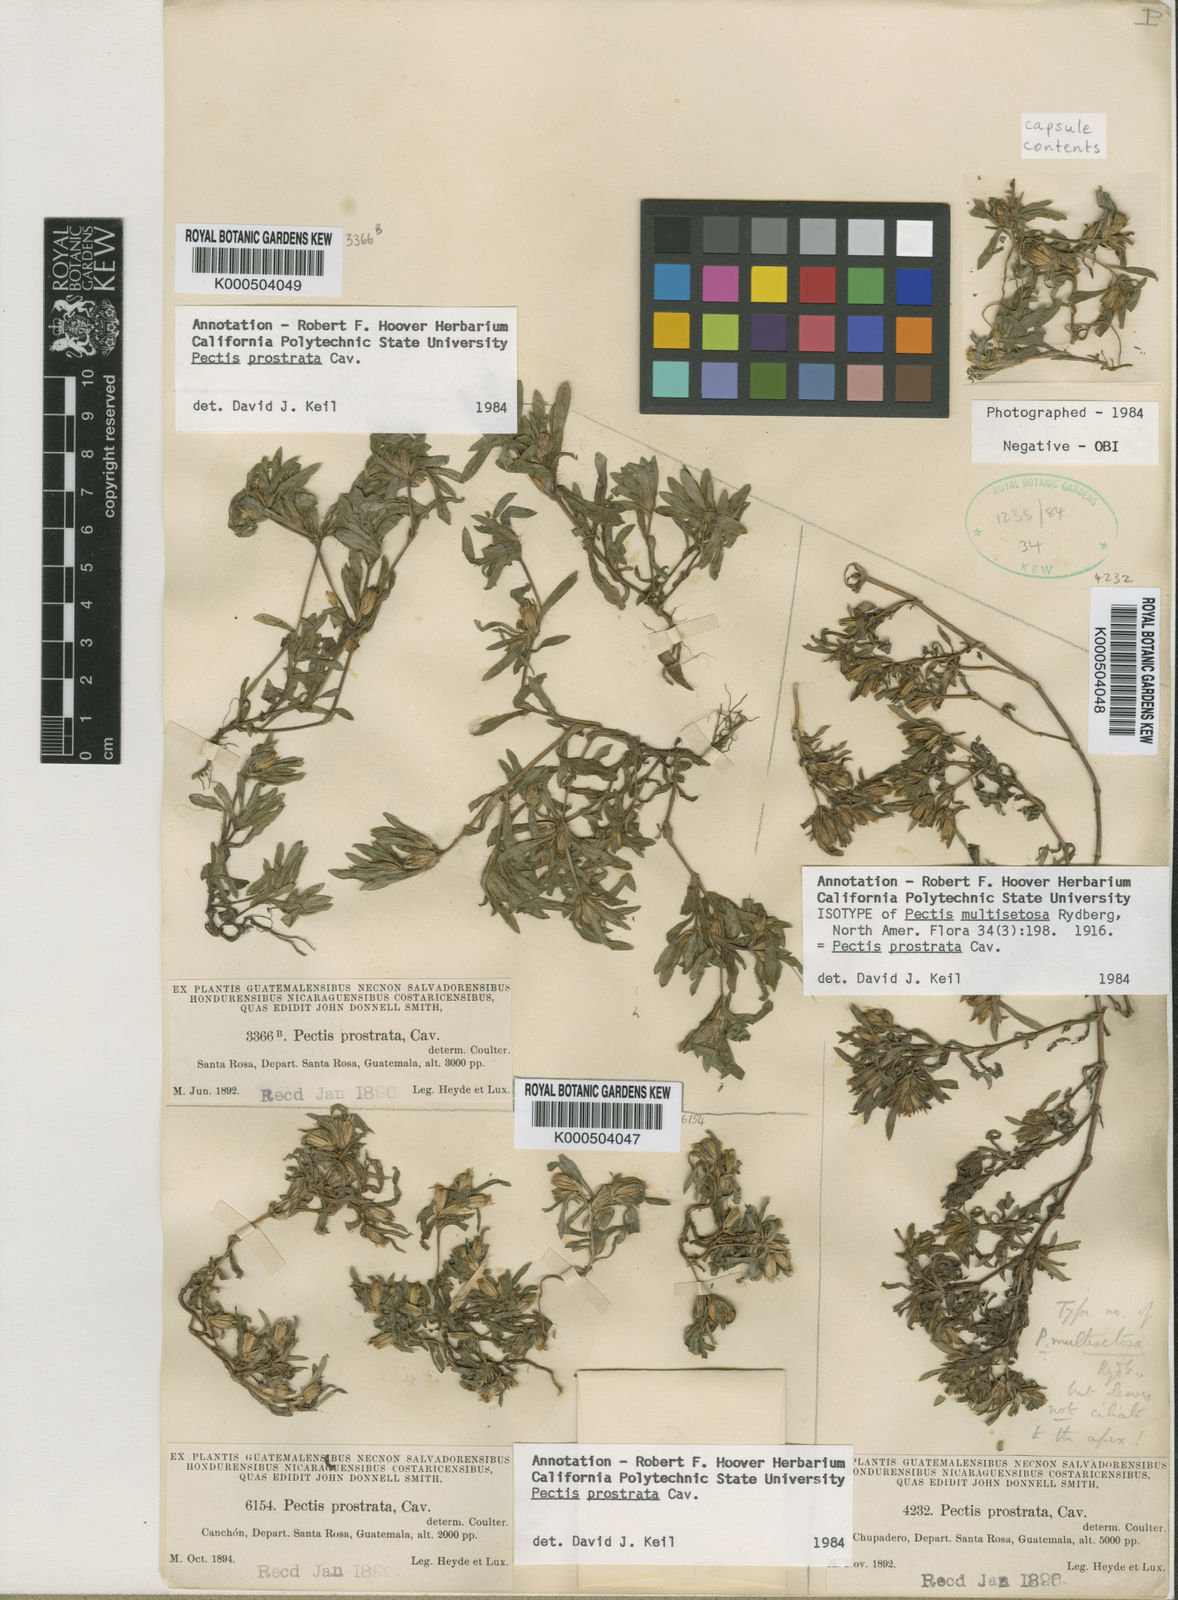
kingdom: Plantae
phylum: Tracheophyta
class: Magnoliopsida
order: Asterales
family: Asteraceae
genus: Pectis
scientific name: Pectis prostrata
